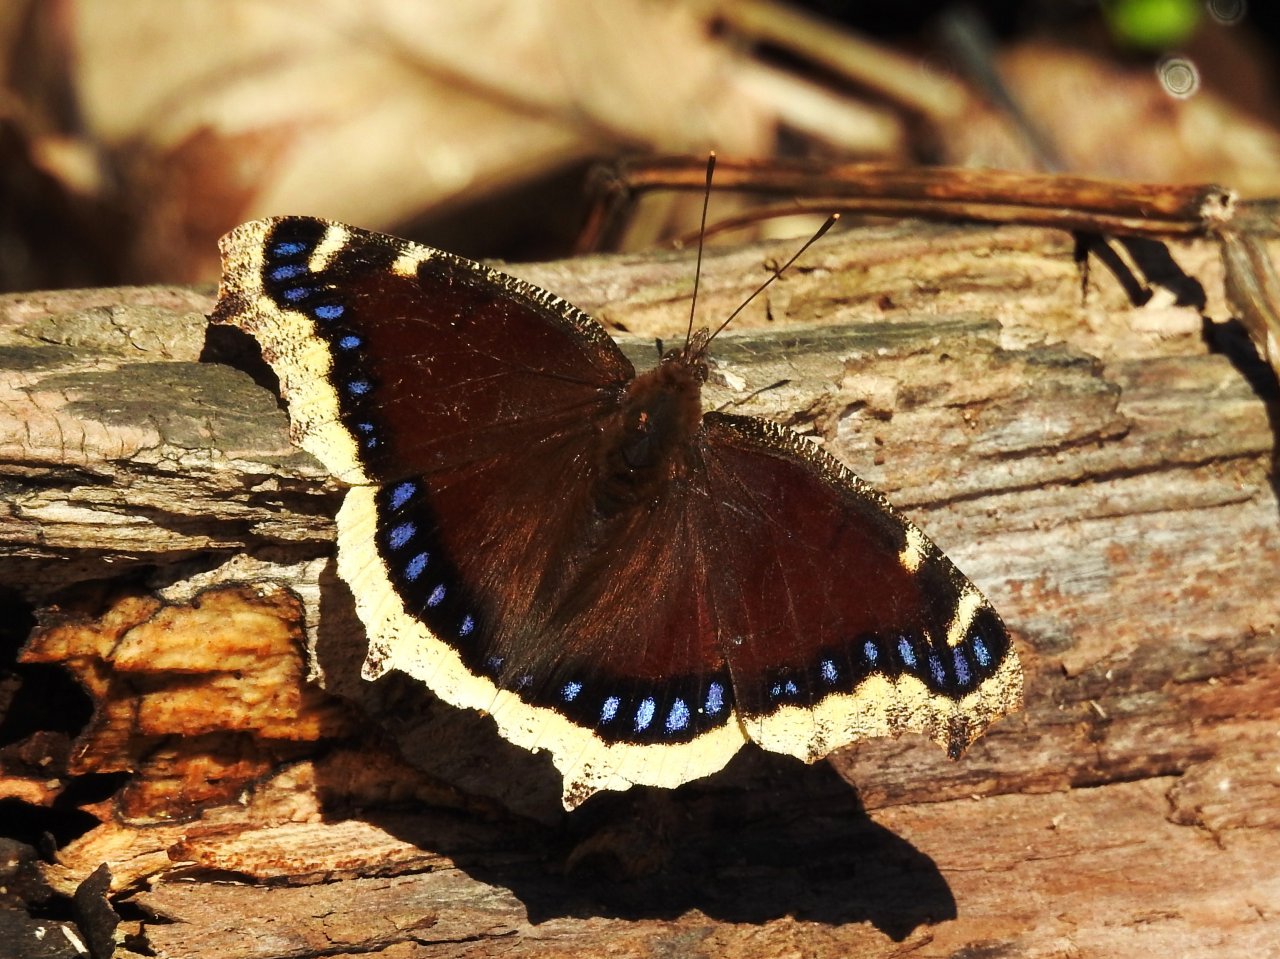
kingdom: Animalia
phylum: Arthropoda
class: Insecta
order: Lepidoptera
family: Nymphalidae
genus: Nymphalis
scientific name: Nymphalis antiopa
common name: Mourning Cloak
